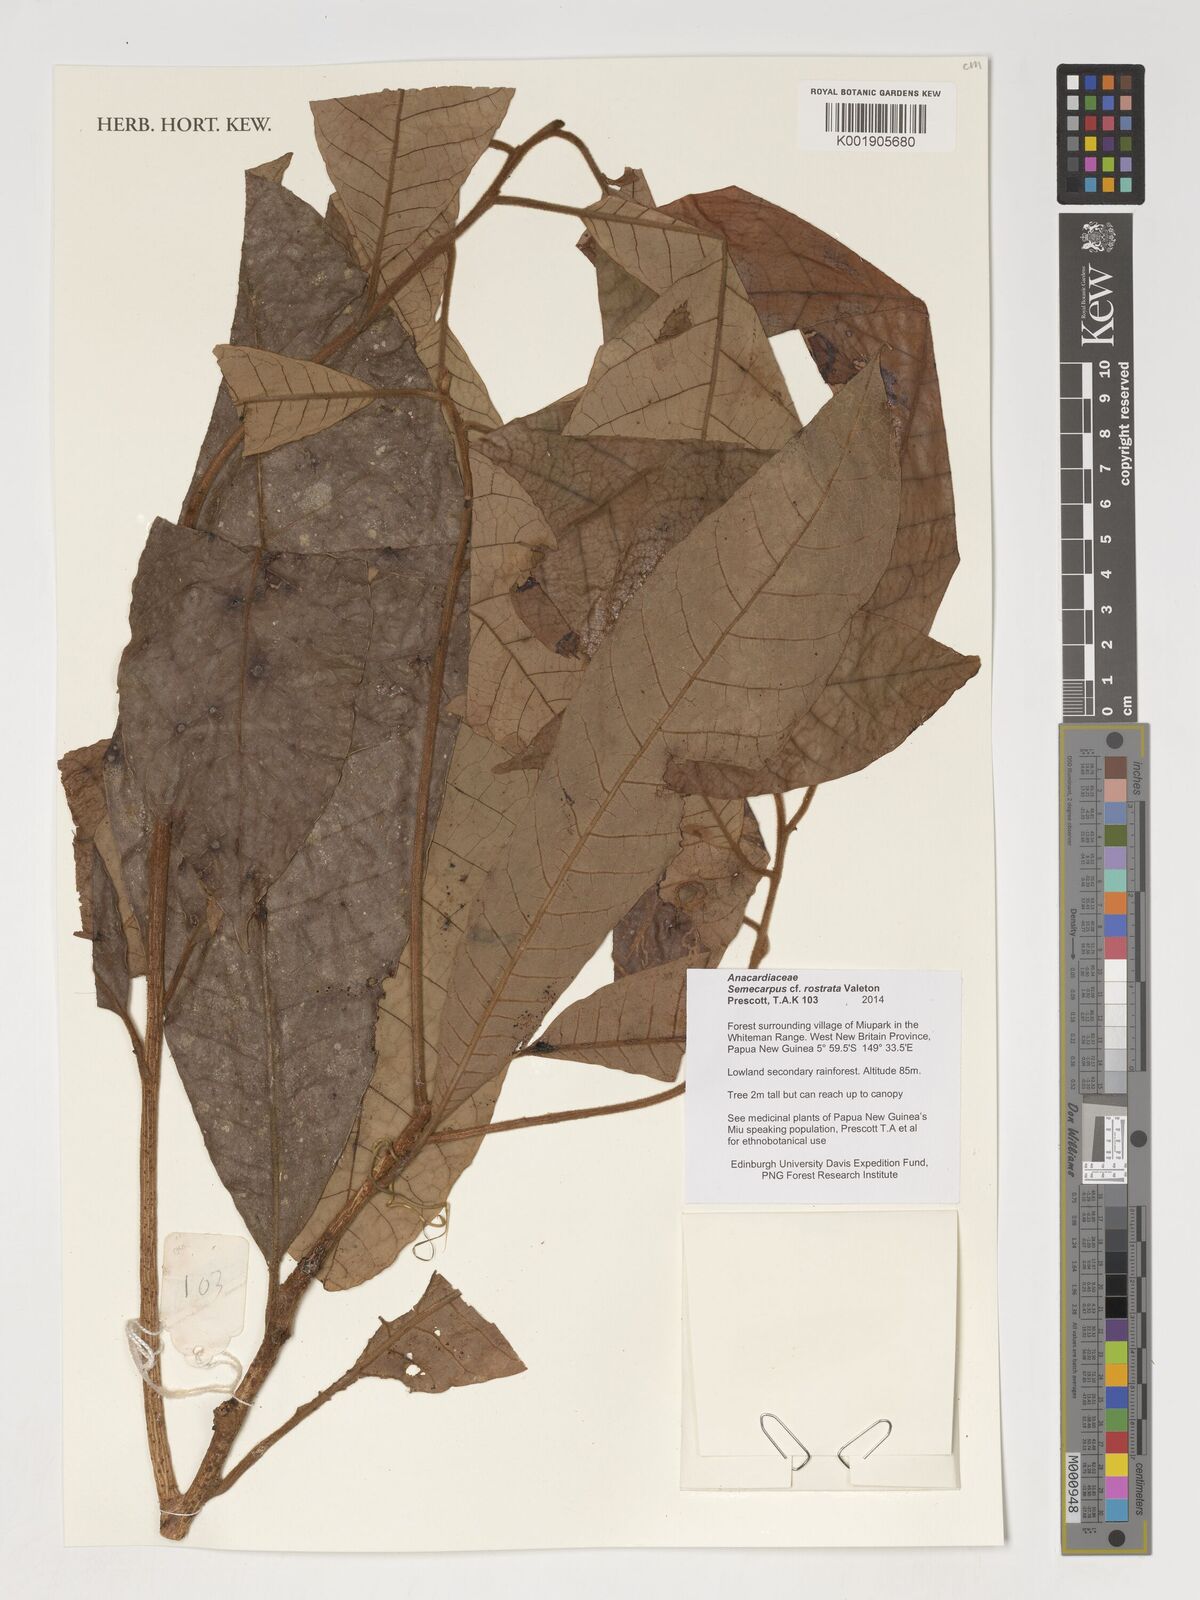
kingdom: Plantae
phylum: Tracheophyta
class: Magnoliopsida
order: Sapindales
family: Anacardiaceae
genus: Semecarpus
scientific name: Semecarpus rostratus
